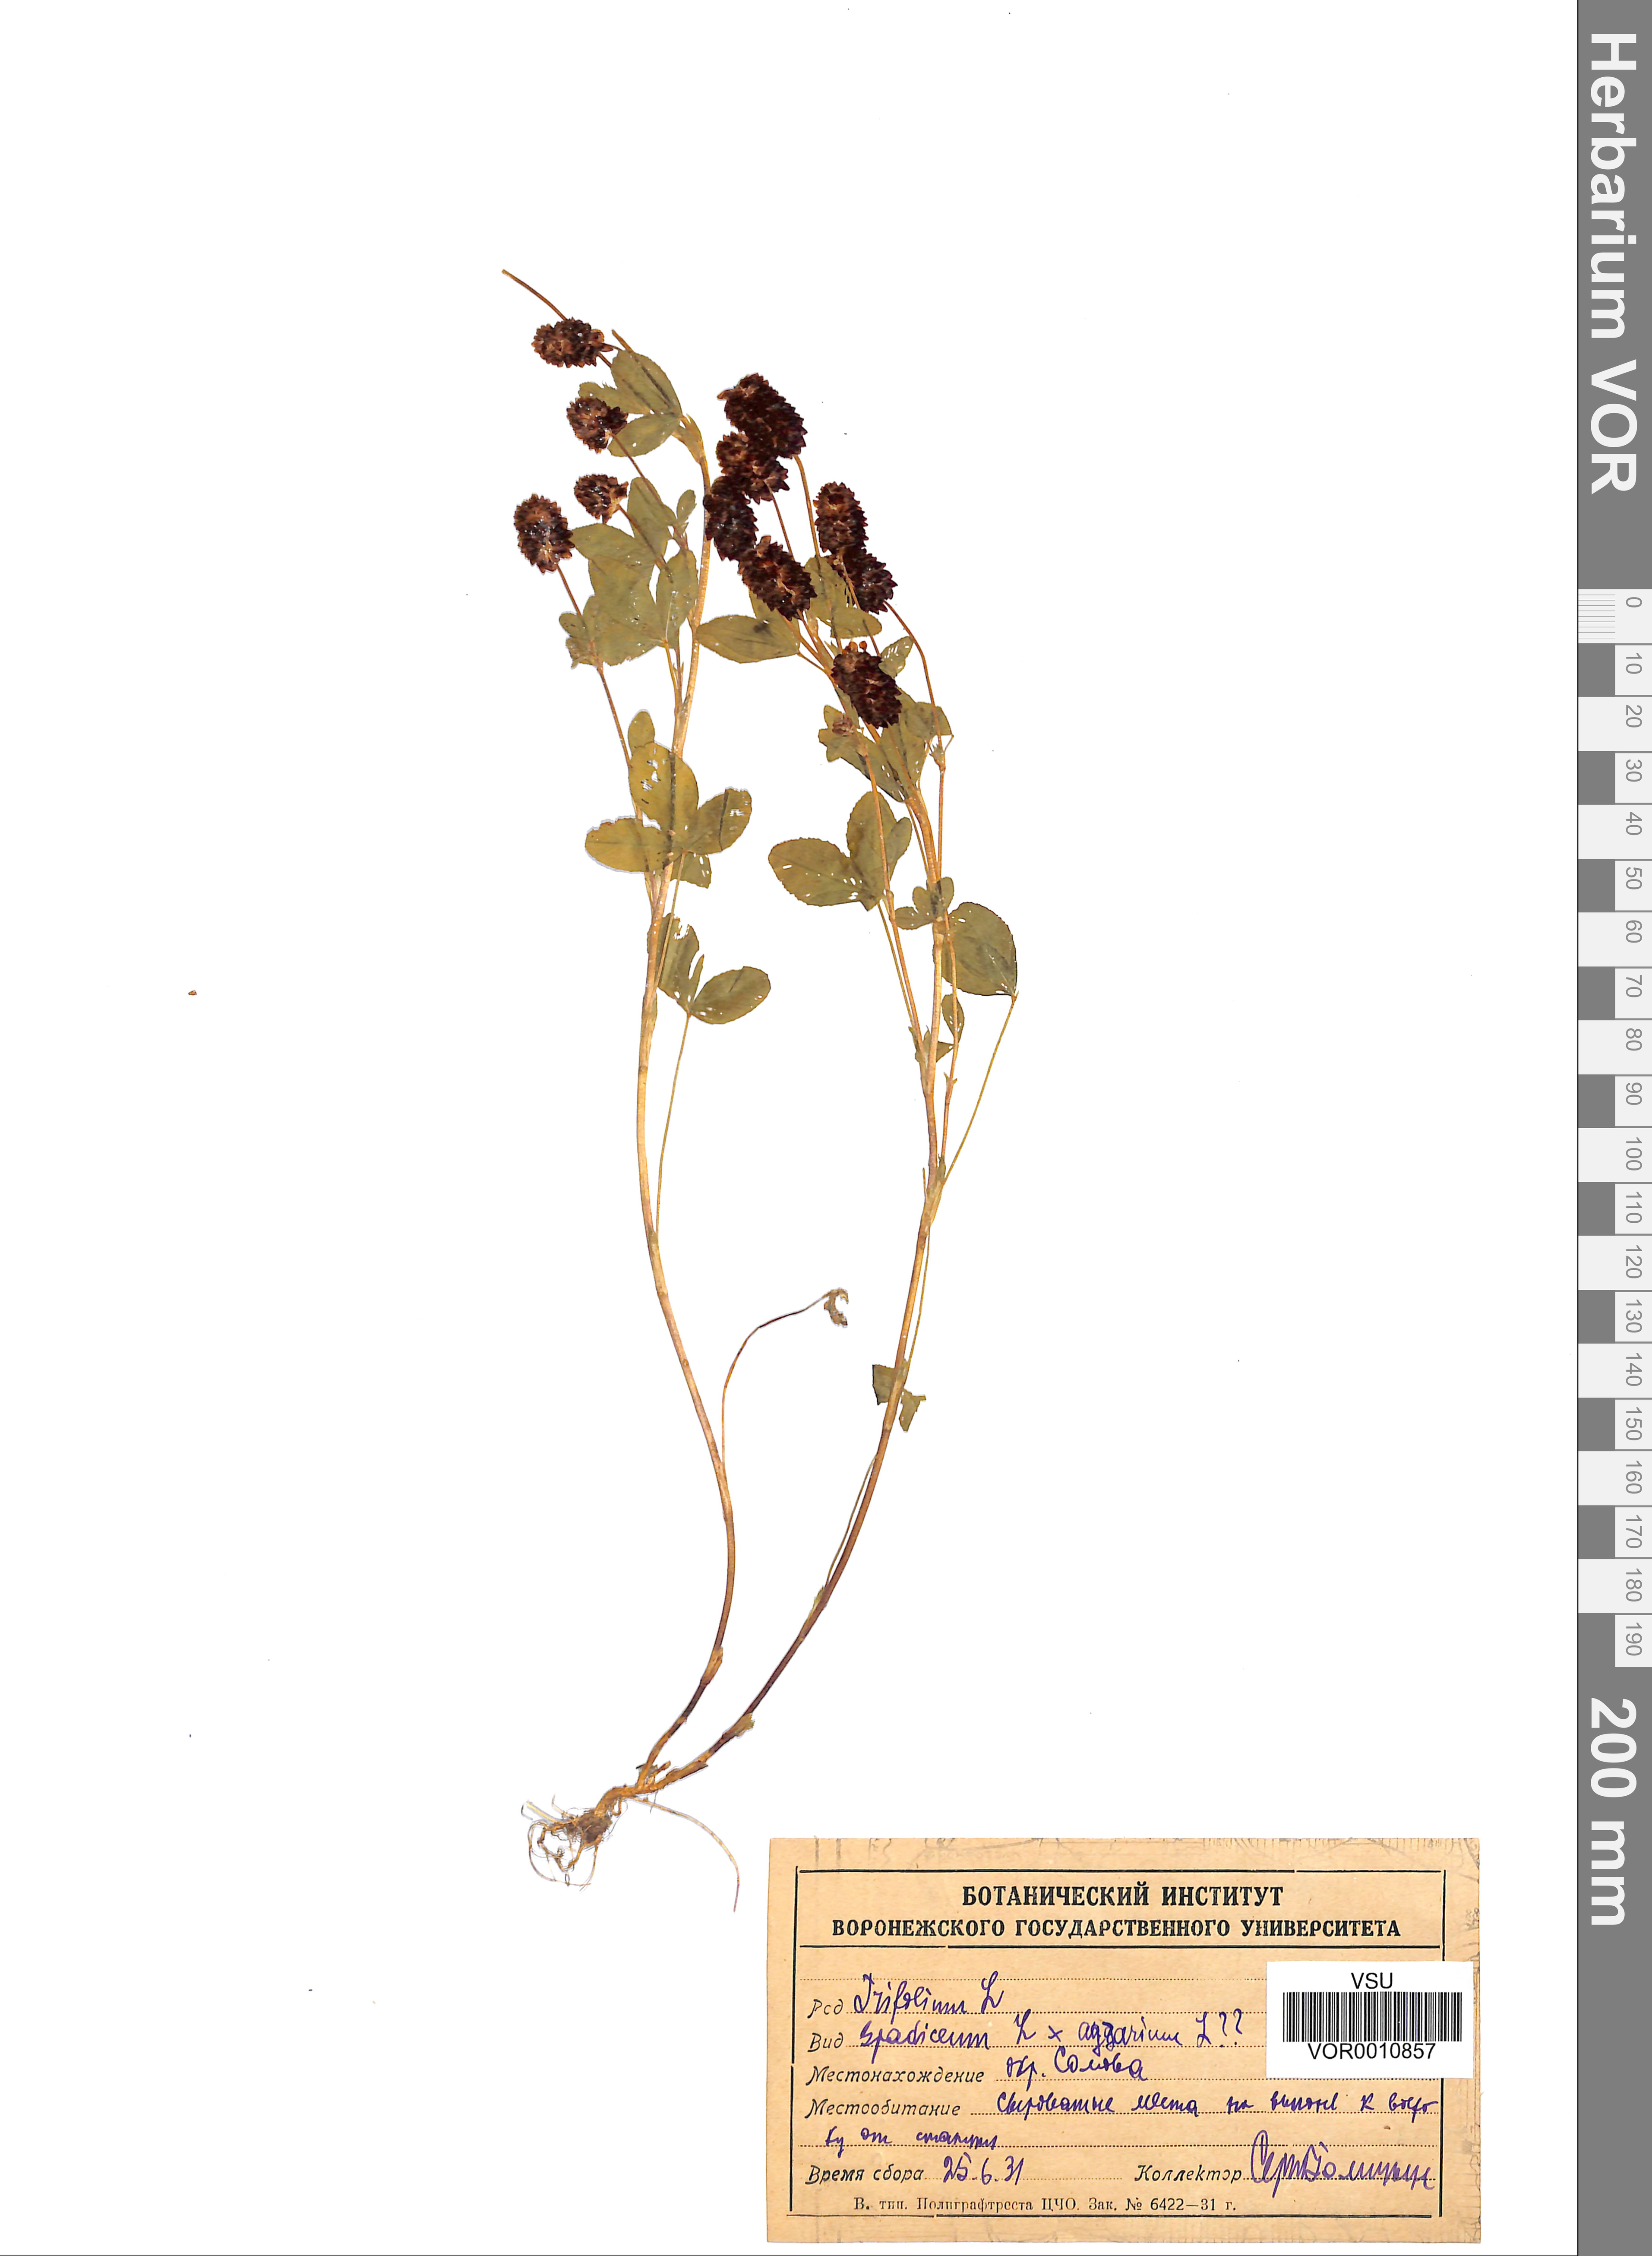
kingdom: Plantae
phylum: Tracheophyta
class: Magnoliopsida
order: Fabales
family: Fabaceae
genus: Trifolium
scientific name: Trifolium spadiceum
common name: Brown moor clover
